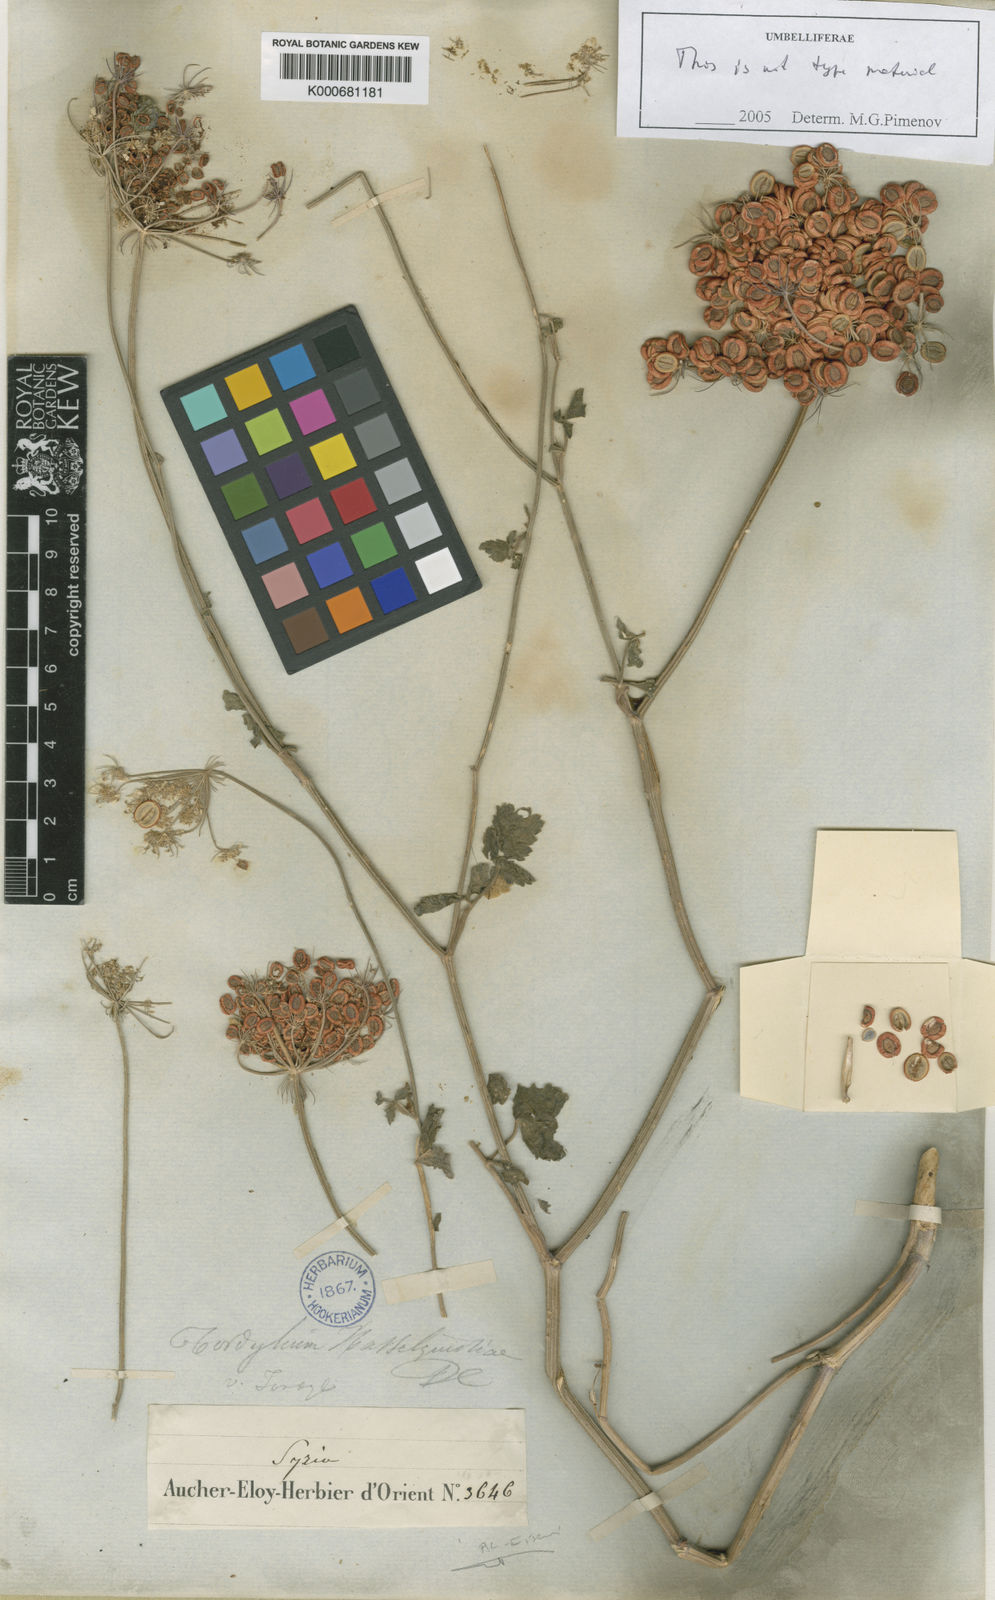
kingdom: Plantae
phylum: Tracheophyta
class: Magnoliopsida
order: Apiales
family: Apiaceae
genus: Tordylium
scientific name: Tordylium hasselquistiae
